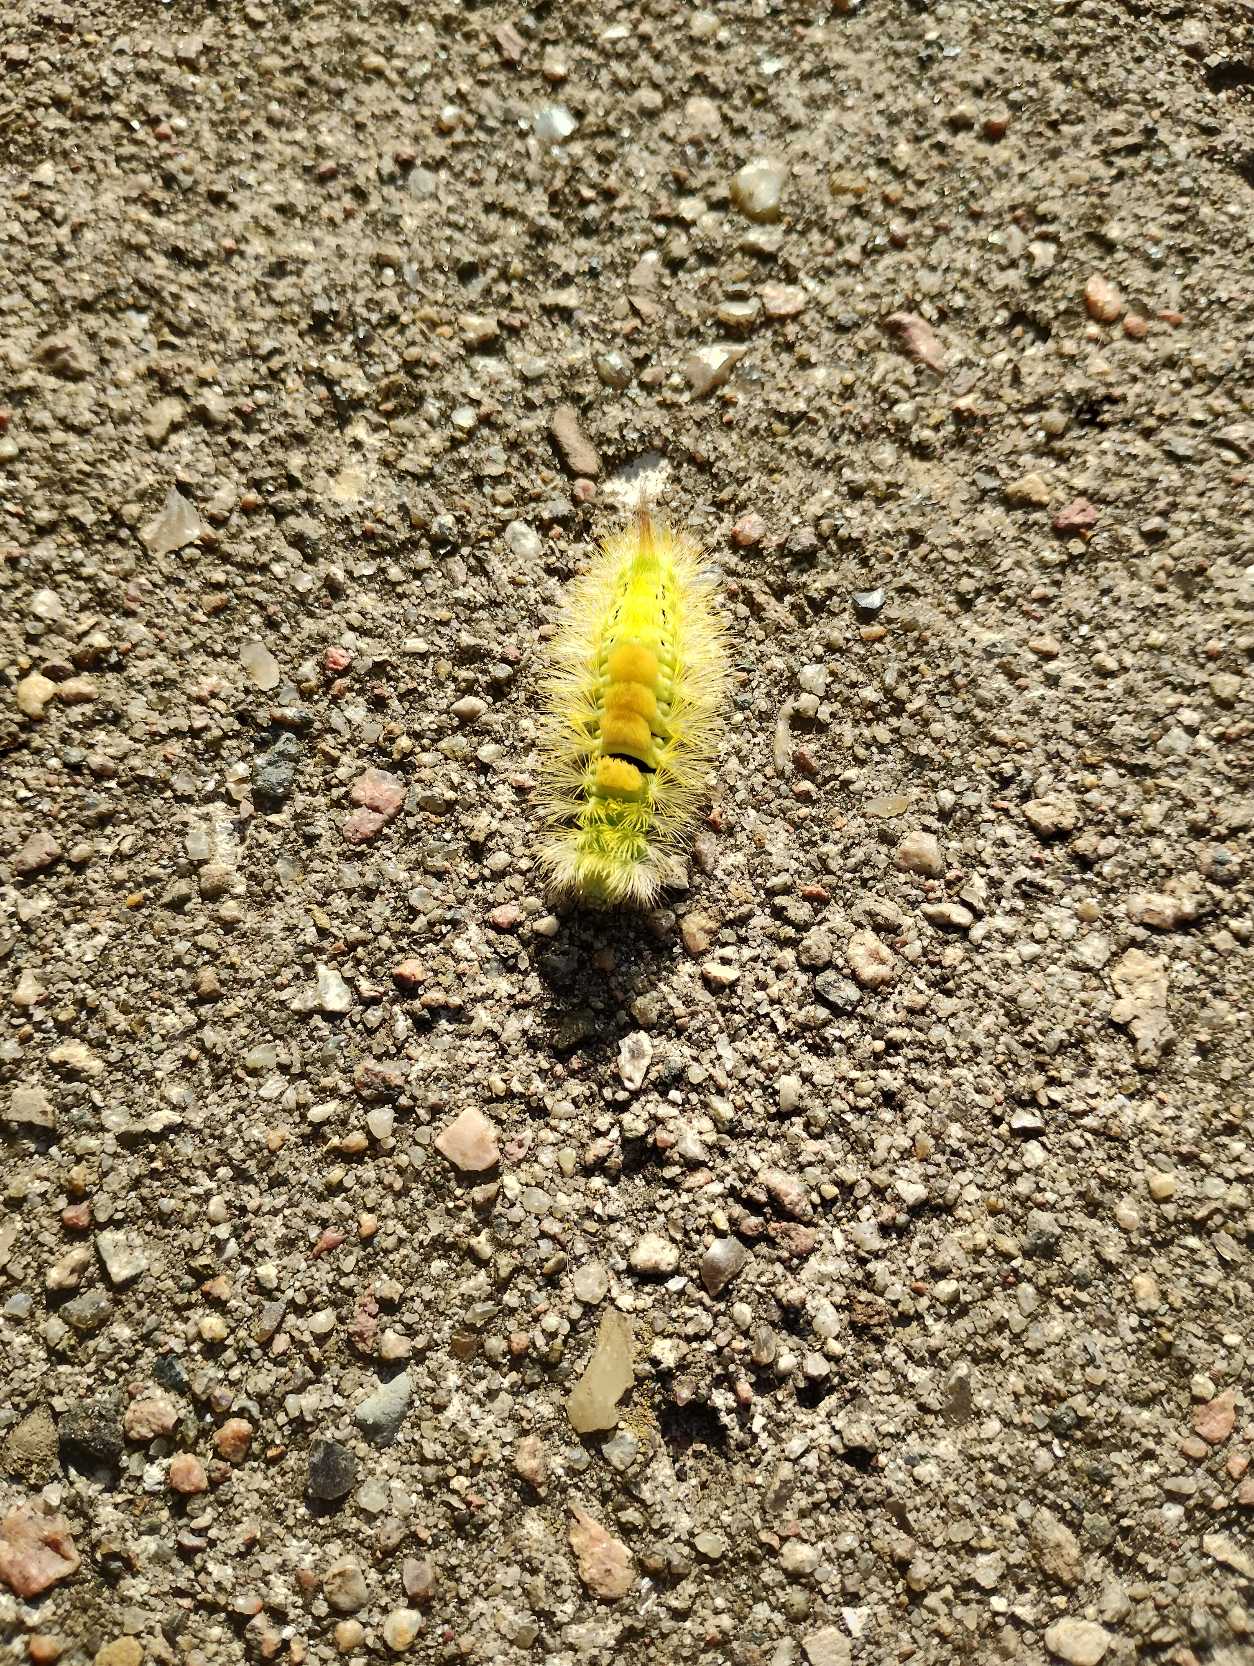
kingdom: Animalia
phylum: Arthropoda
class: Insecta
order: Lepidoptera
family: Erebidae
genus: Calliteara
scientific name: Calliteara pudibunda
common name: Bøgenonne
